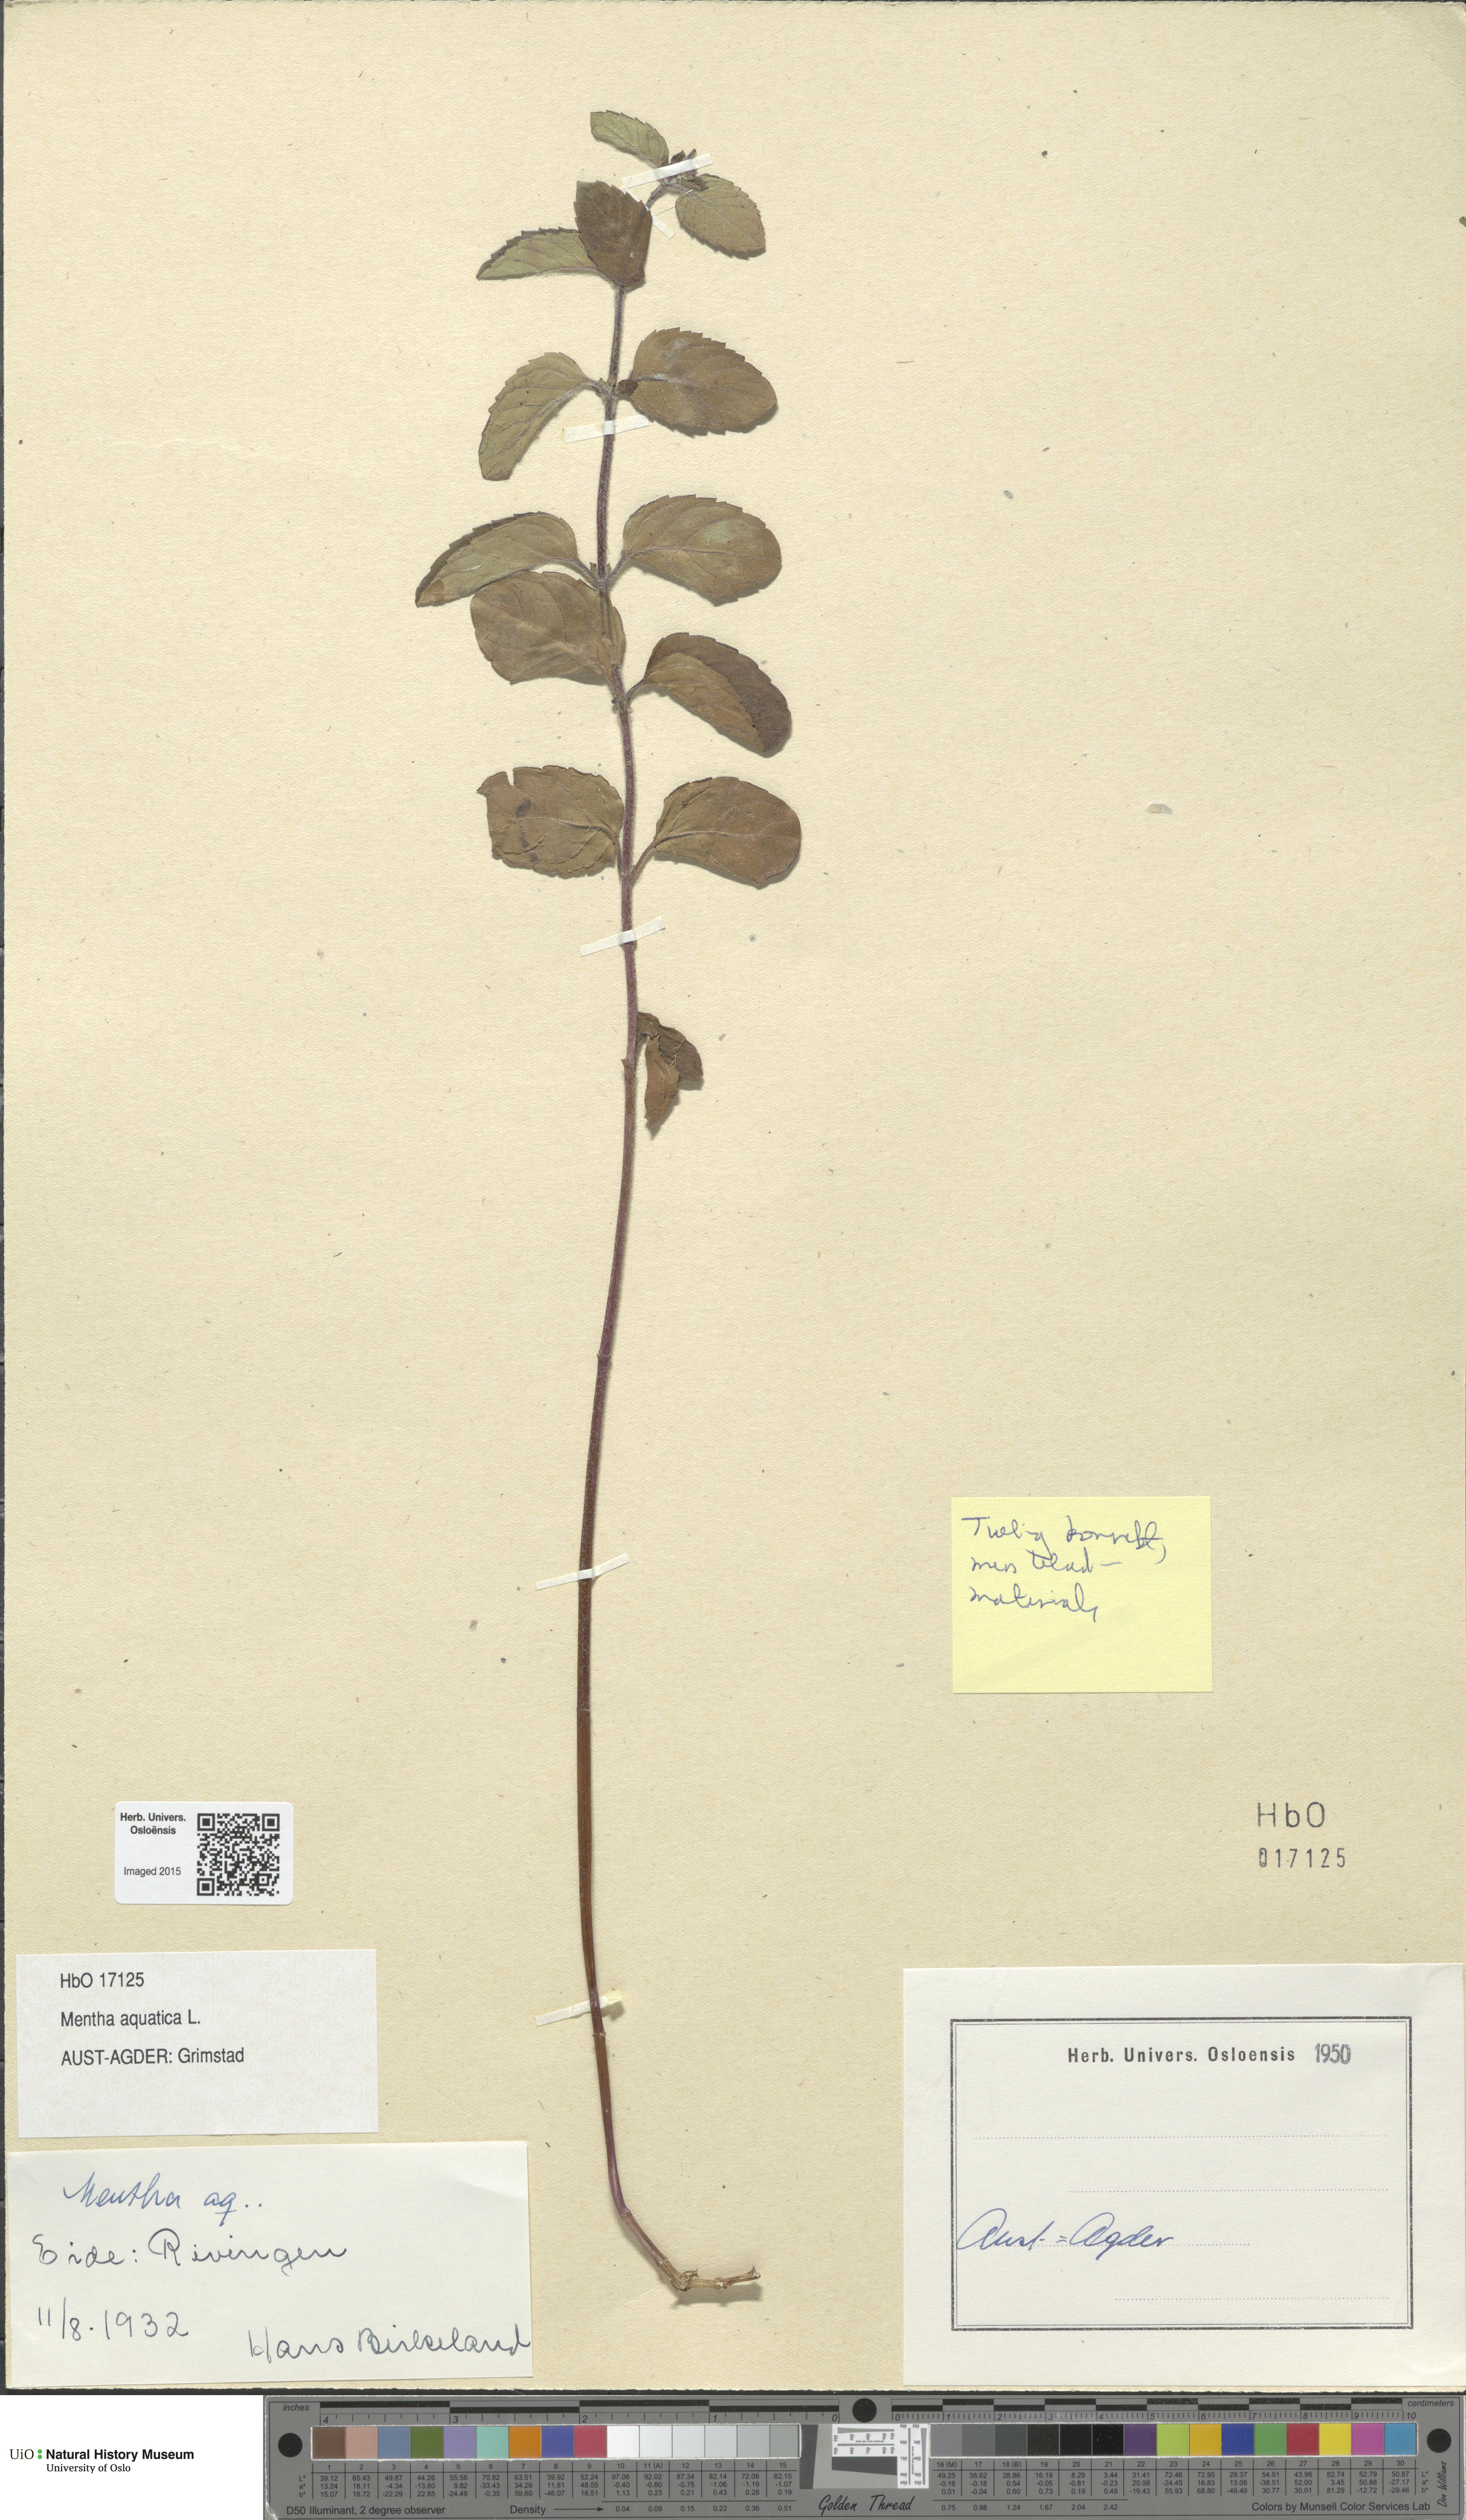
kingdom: Plantae
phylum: Tracheophyta
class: Magnoliopsida
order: Lamiales
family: Lamiaceae
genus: Mentha
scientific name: Mentha aquatica
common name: Water mint
